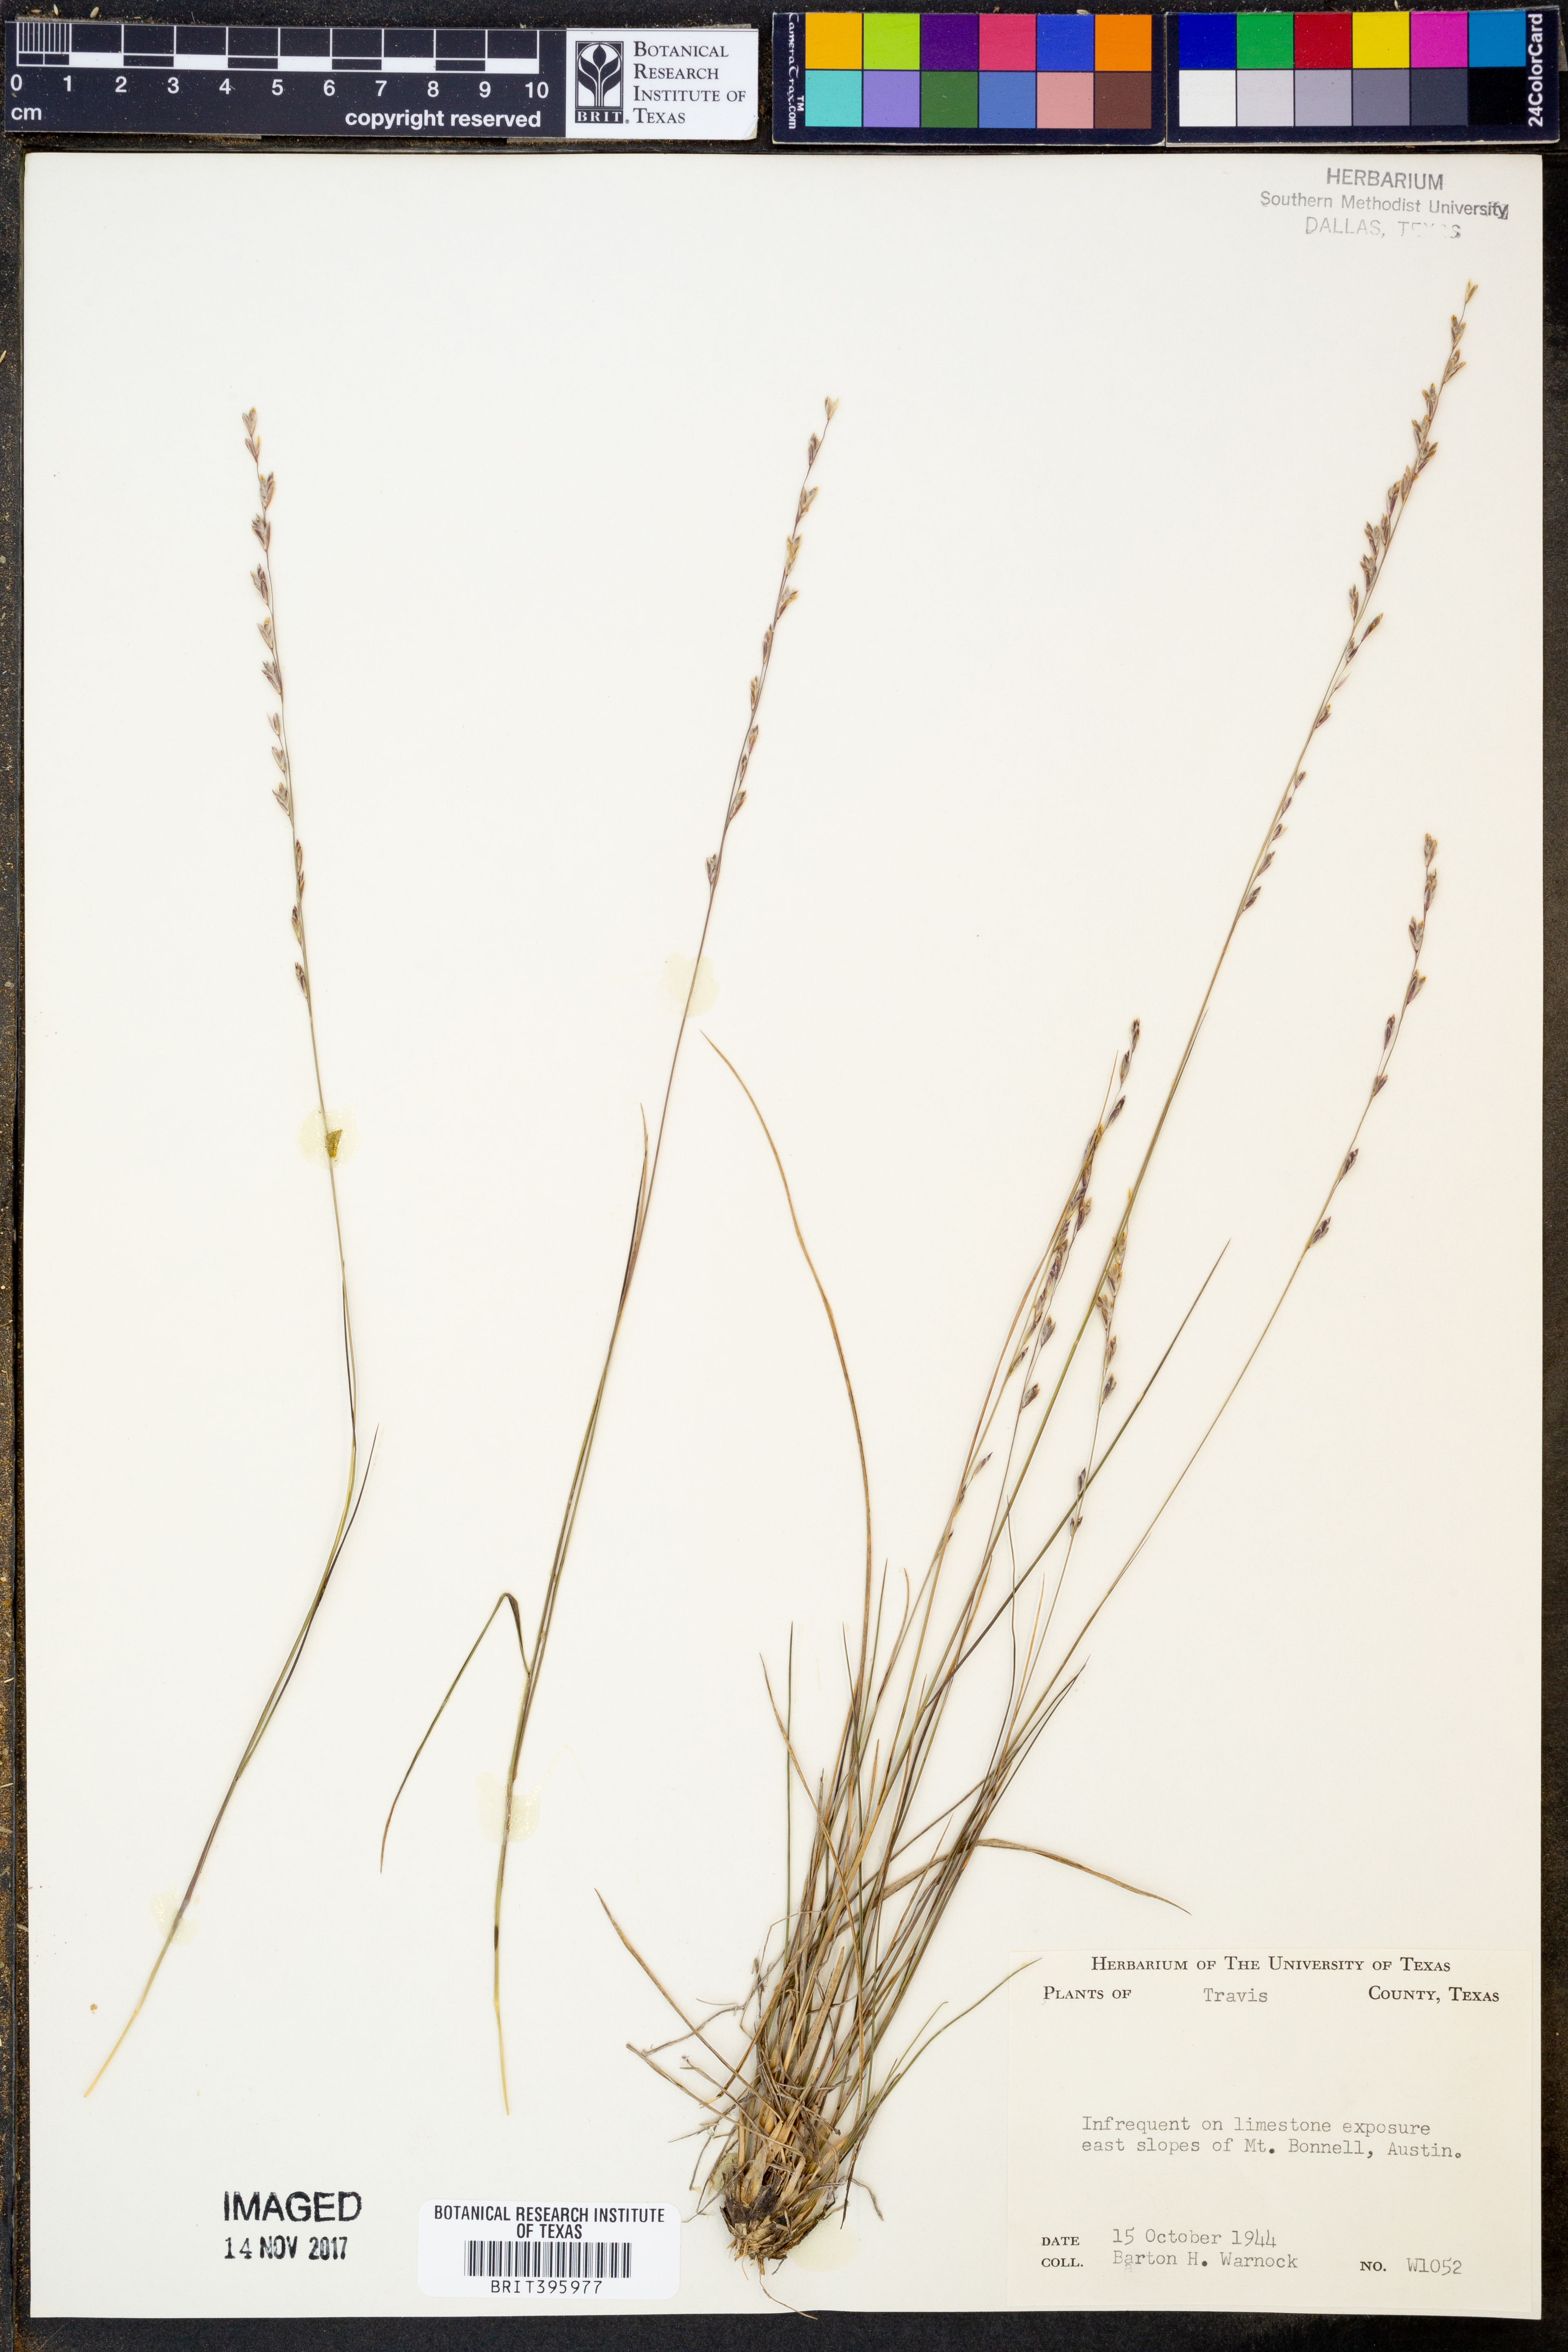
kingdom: Plantae
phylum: Tracheophyta
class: Liliopsida
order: Poales
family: Poaceae
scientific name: Poaceae
